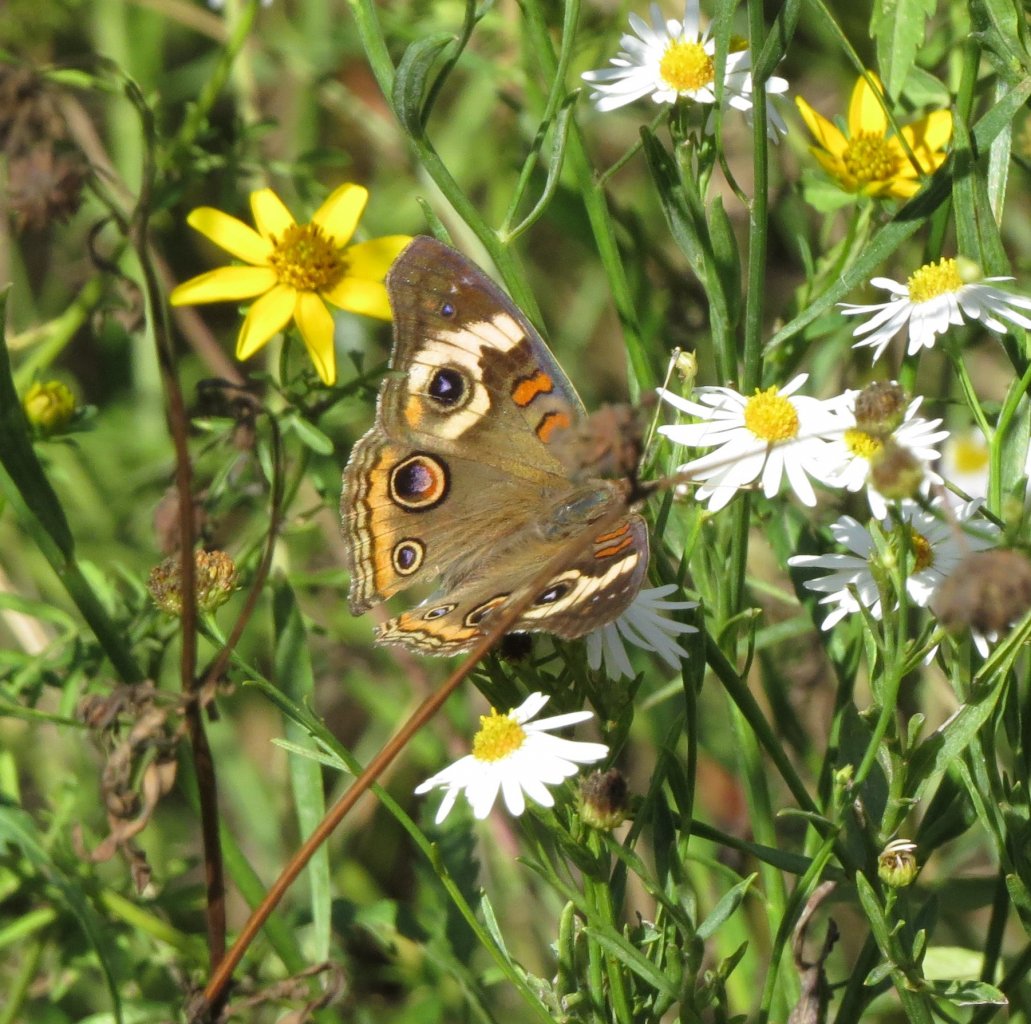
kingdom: Animalia
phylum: Arthropoda
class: Insecta
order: Lepidoptera
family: Nymphalidae
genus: Junonia
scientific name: Junonia coenia
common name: Common Buckeye
